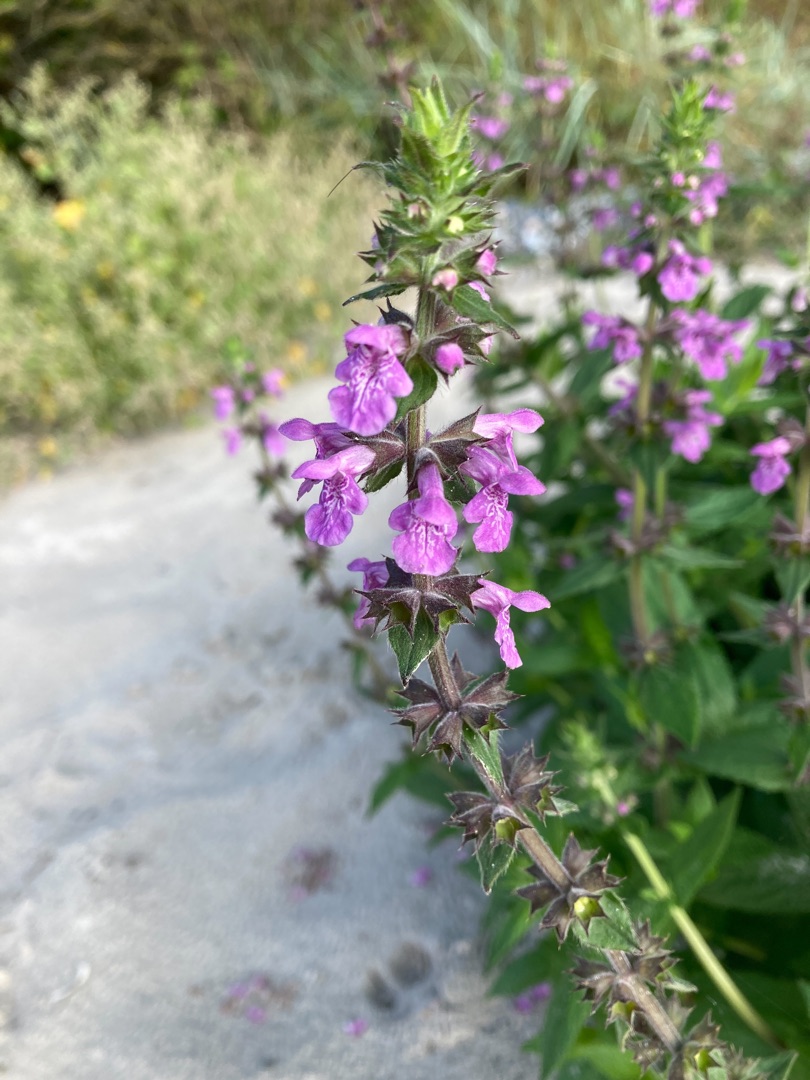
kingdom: Plantae
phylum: Tracheophyta
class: Magnoliopsida
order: Lamiales
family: Lamiaceae
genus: Stachys
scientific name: Stachys palustris
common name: Kær-galtetand
